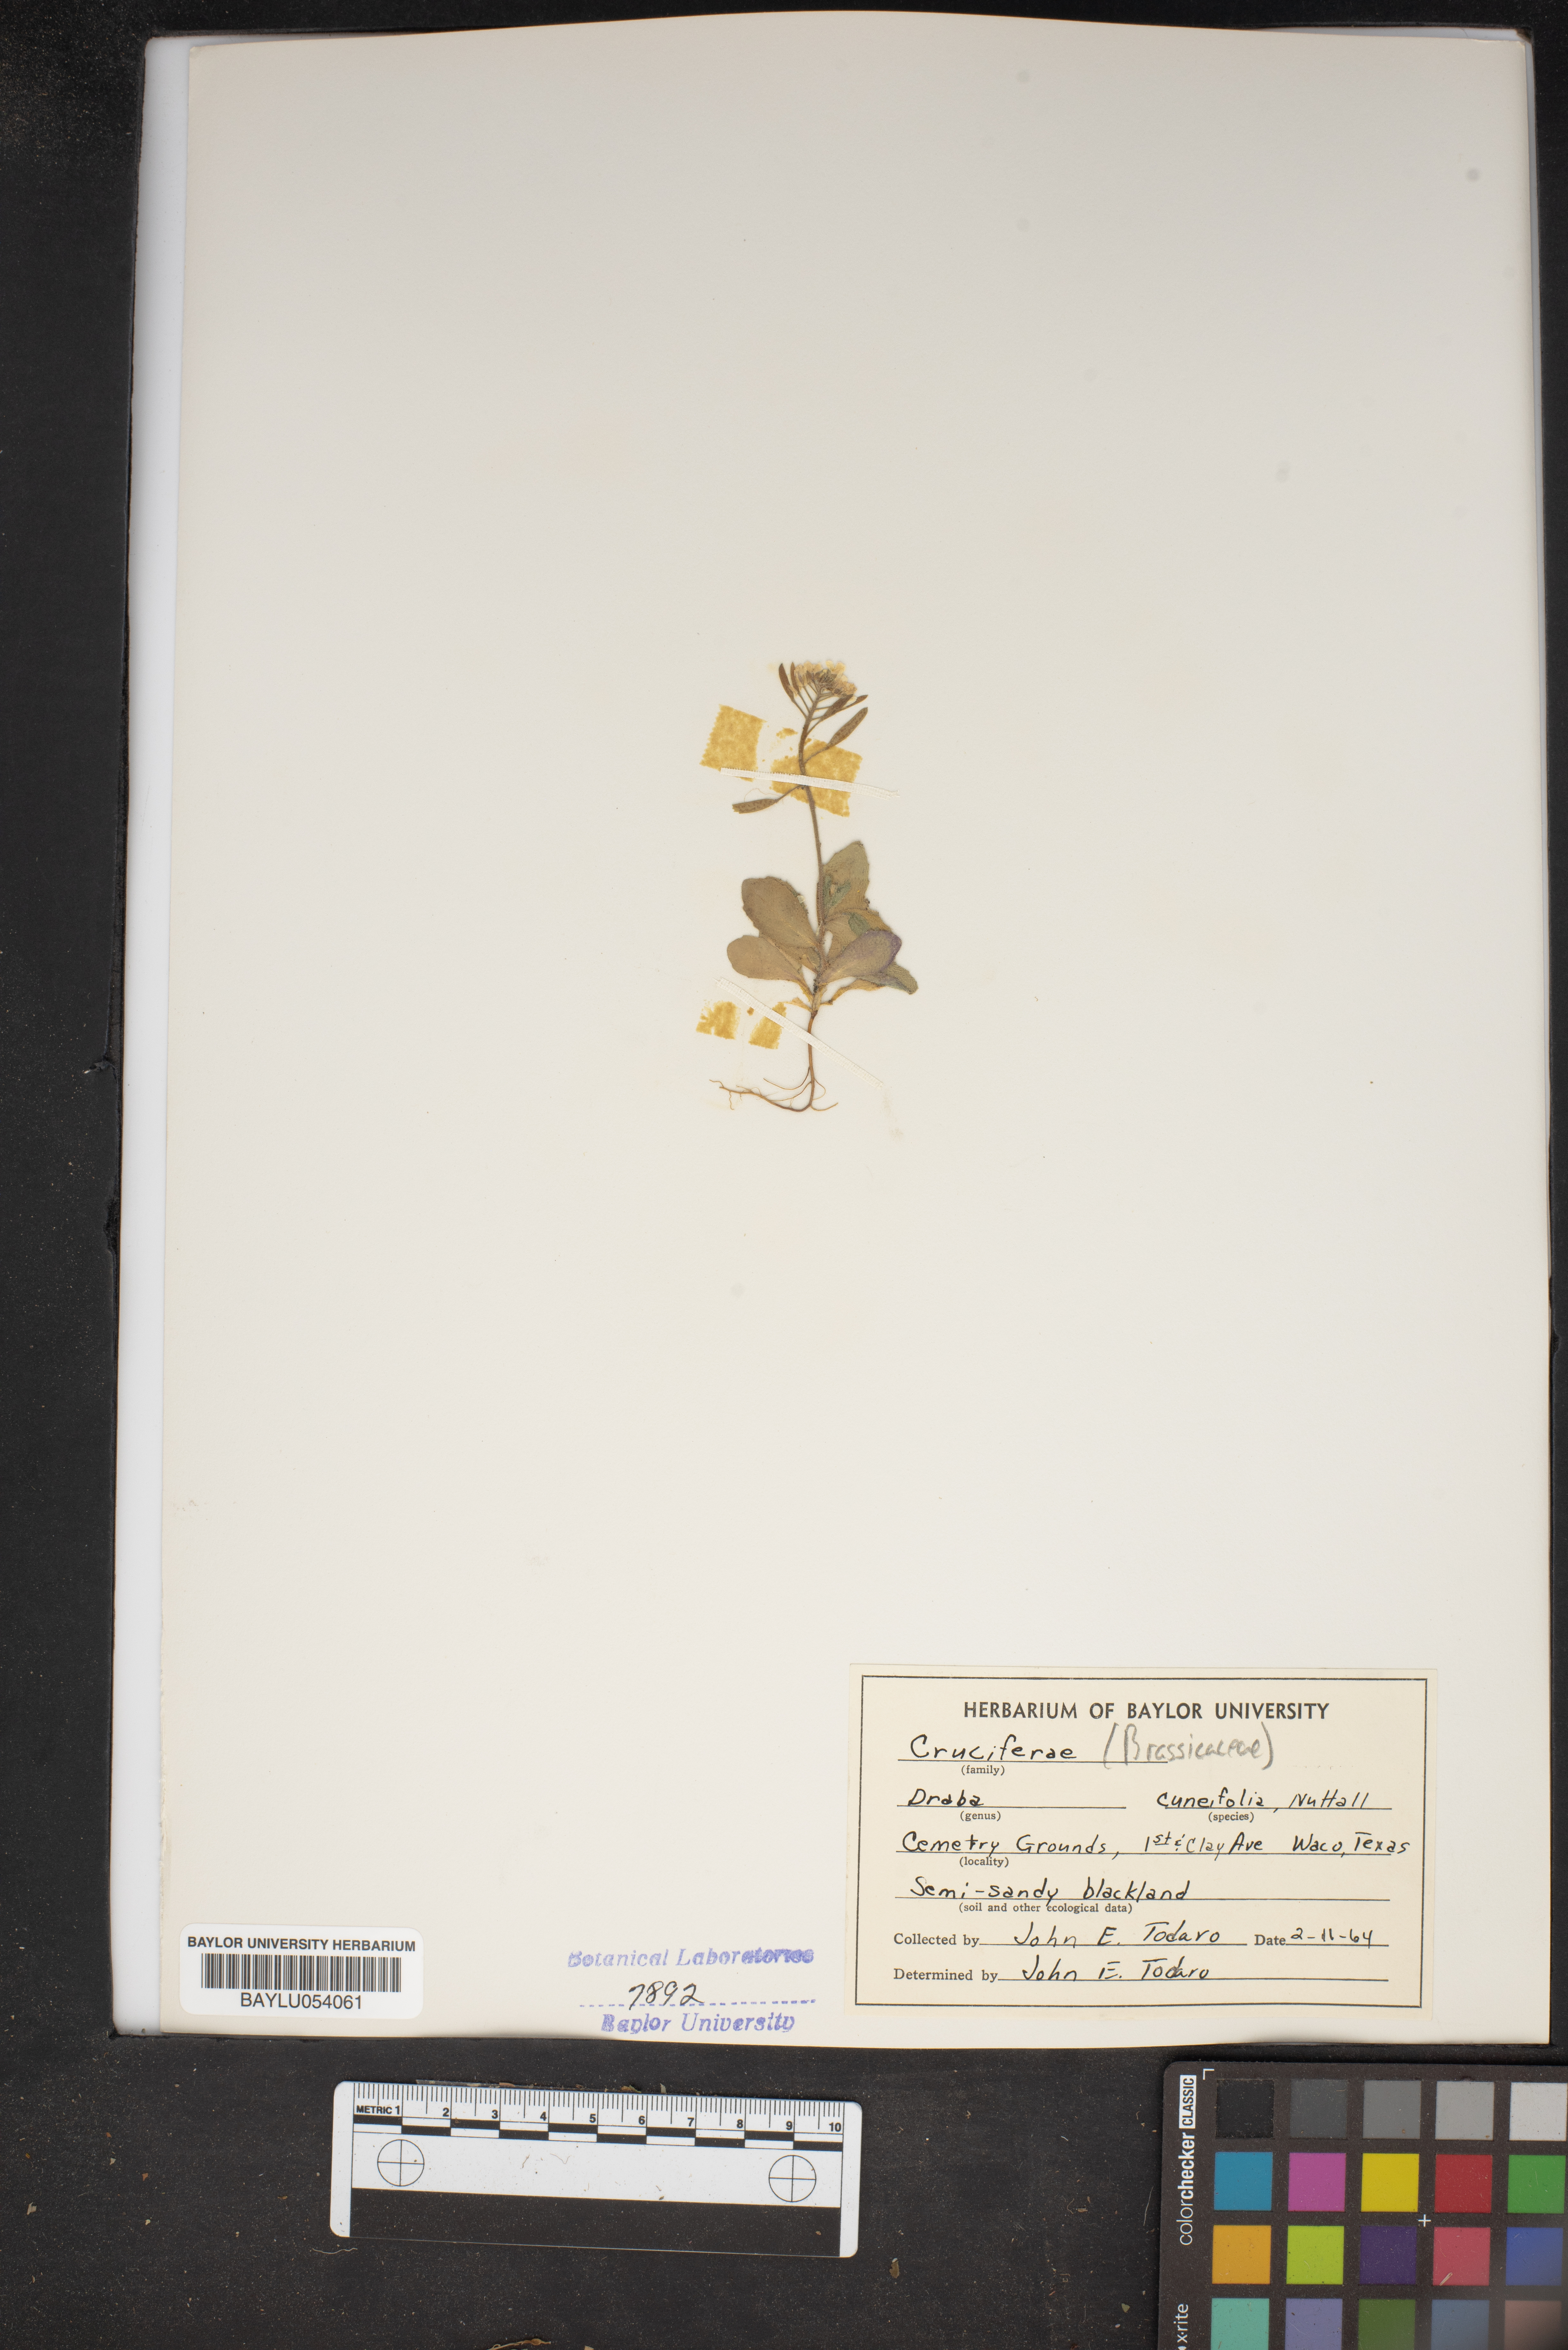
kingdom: Plantae
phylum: Tracheophyta
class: Magnoliopsida
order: Brassicales
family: Brassicaceae
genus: Tomostima
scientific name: Tomostima cuneifolia
